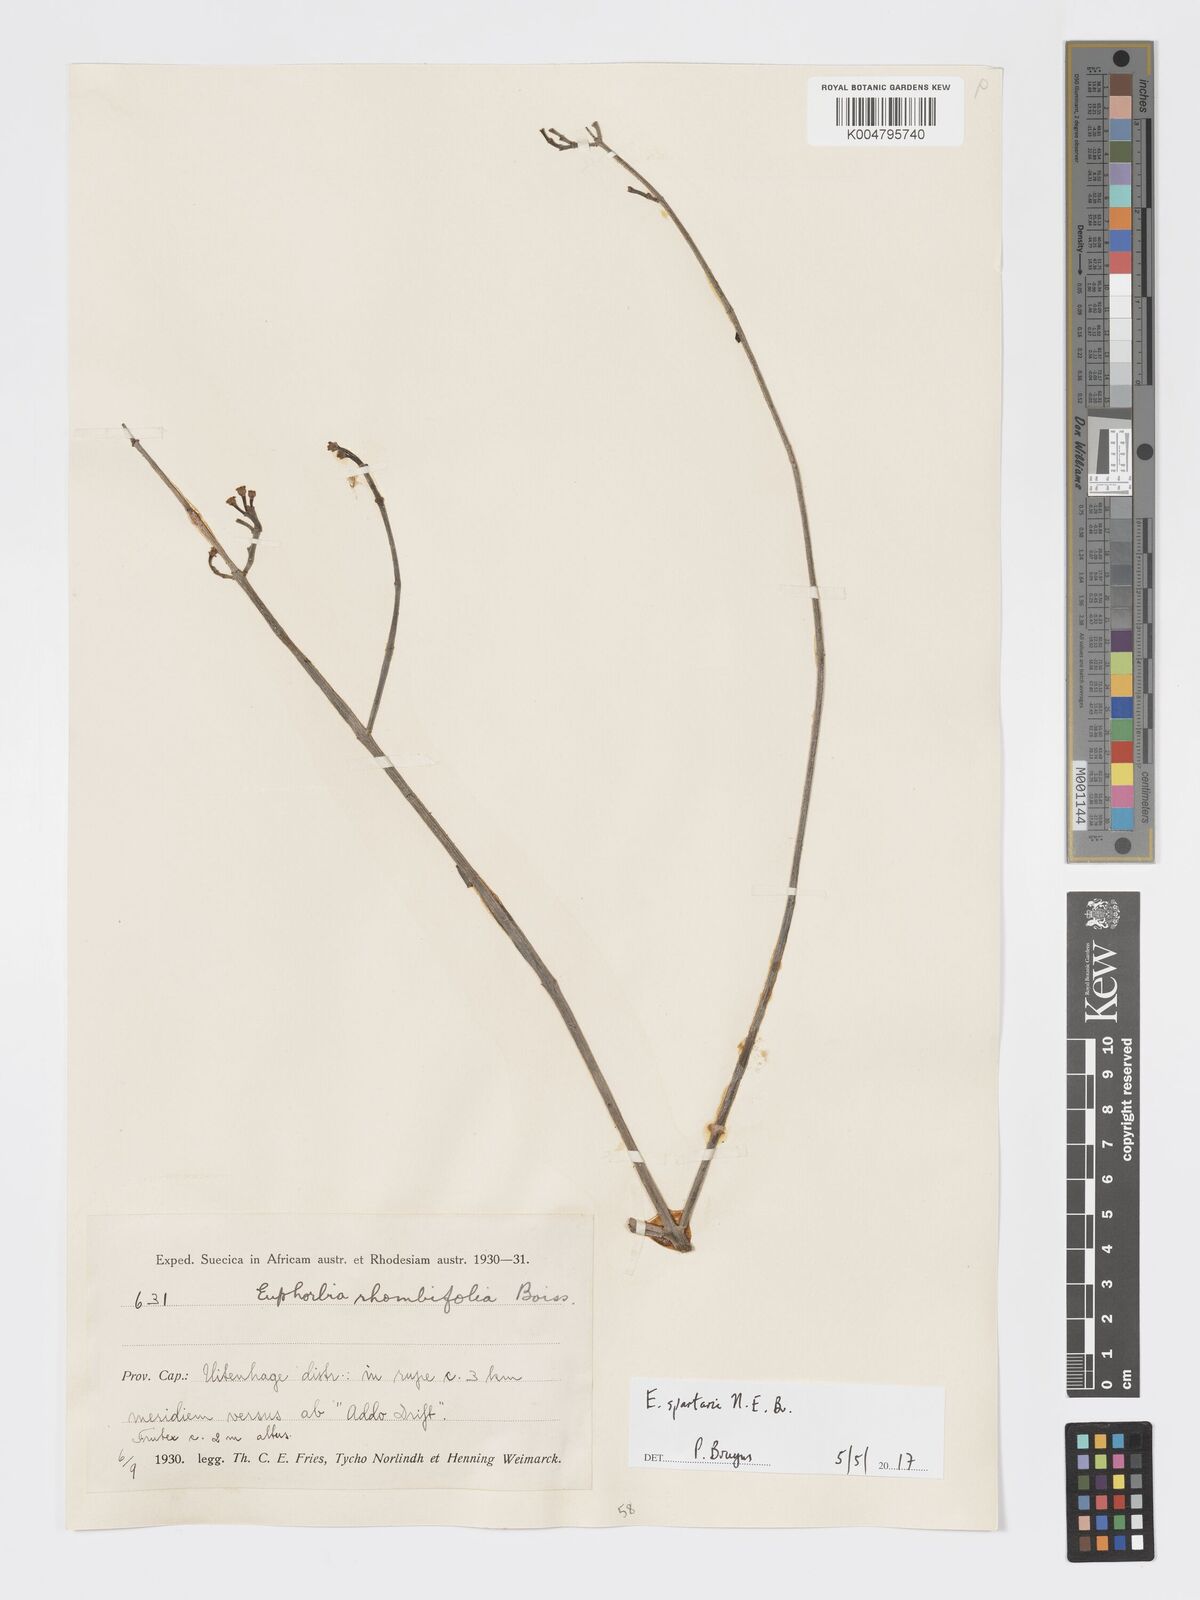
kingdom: Plantae
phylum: Tracheophyta
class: Magnoliopsida
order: Malpighiales
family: Euphorbiaceae
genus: Euphorbia
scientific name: Euphorbia spartaria
